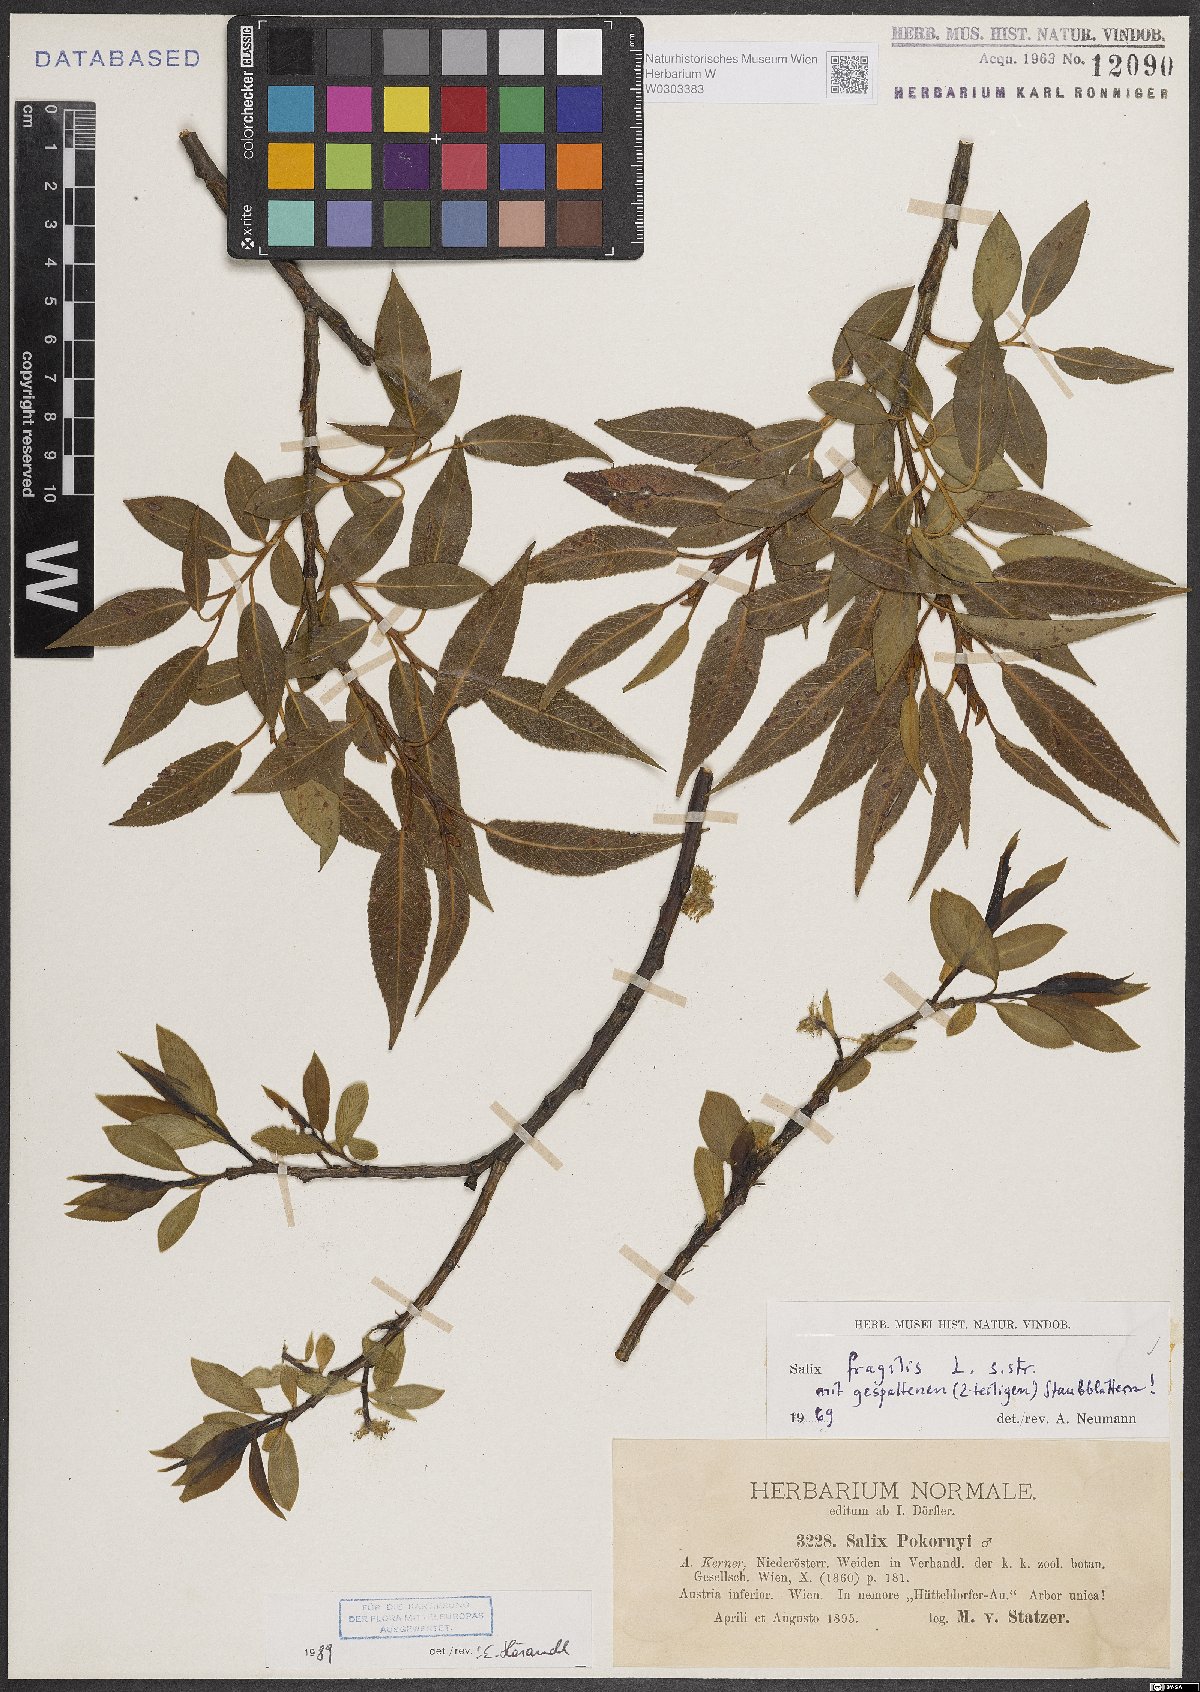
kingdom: Plantae
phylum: Tracheophyta
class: Magnoliopsida
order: Malpighiales
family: Salicaceae
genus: Salix
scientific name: Salix fragilis
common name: Crack willow
